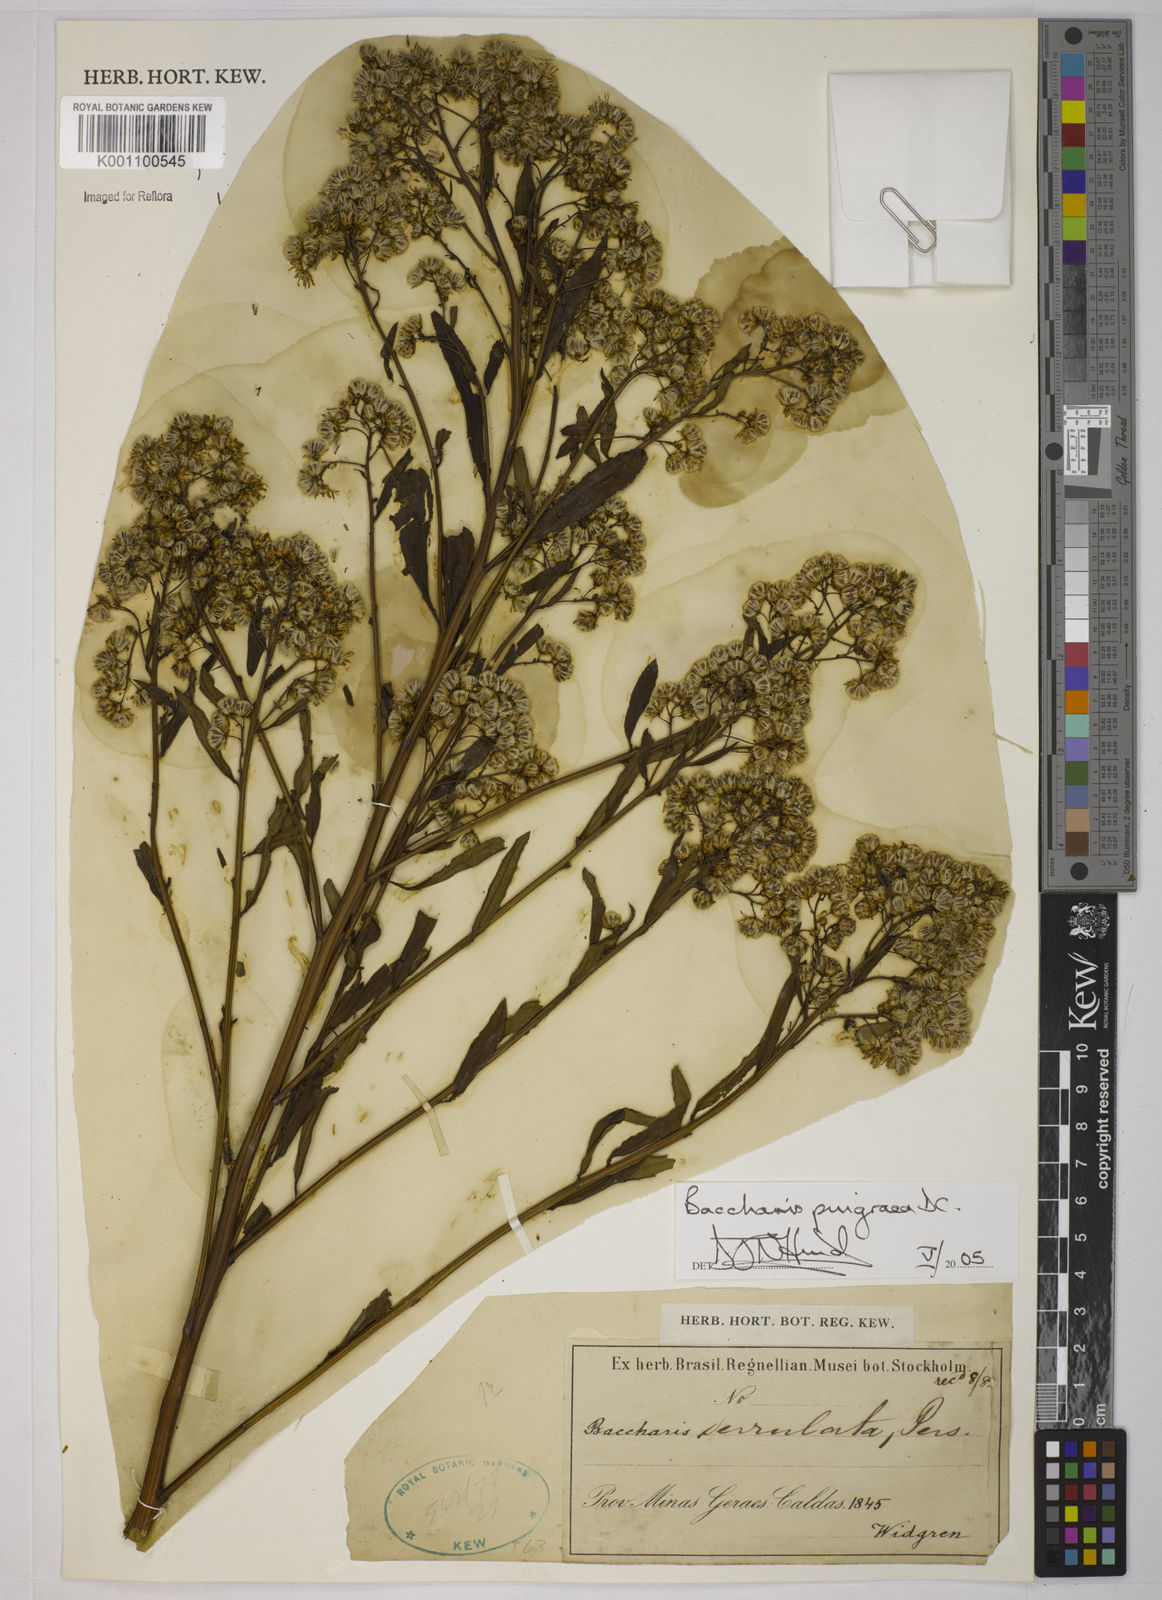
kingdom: Plantae
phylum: Tracheophyta
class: Magnoliopsida
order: Asterales
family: Asteraceae
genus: Baccharis
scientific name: Baccharis glutinosa
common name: Saltmarsh baccharis
